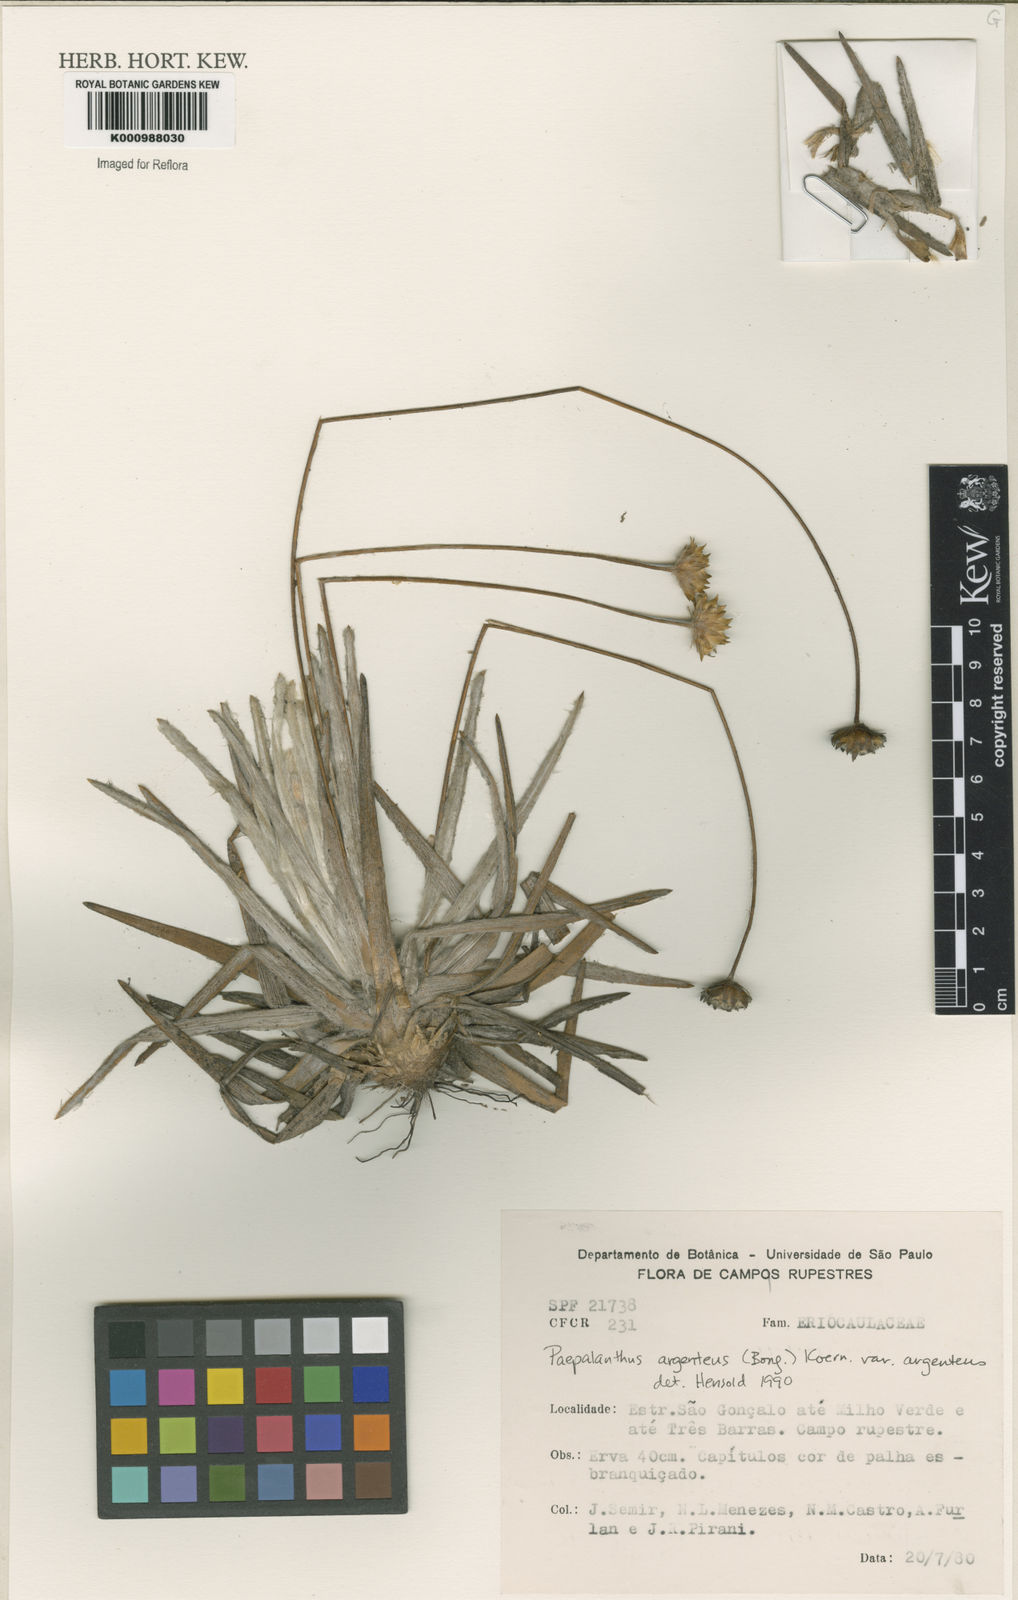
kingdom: Plantae
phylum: Tracheophyta
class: Liliopsida
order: Poales
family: Eriocaulaceae
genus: Paepalanthus
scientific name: Paepalanthus
